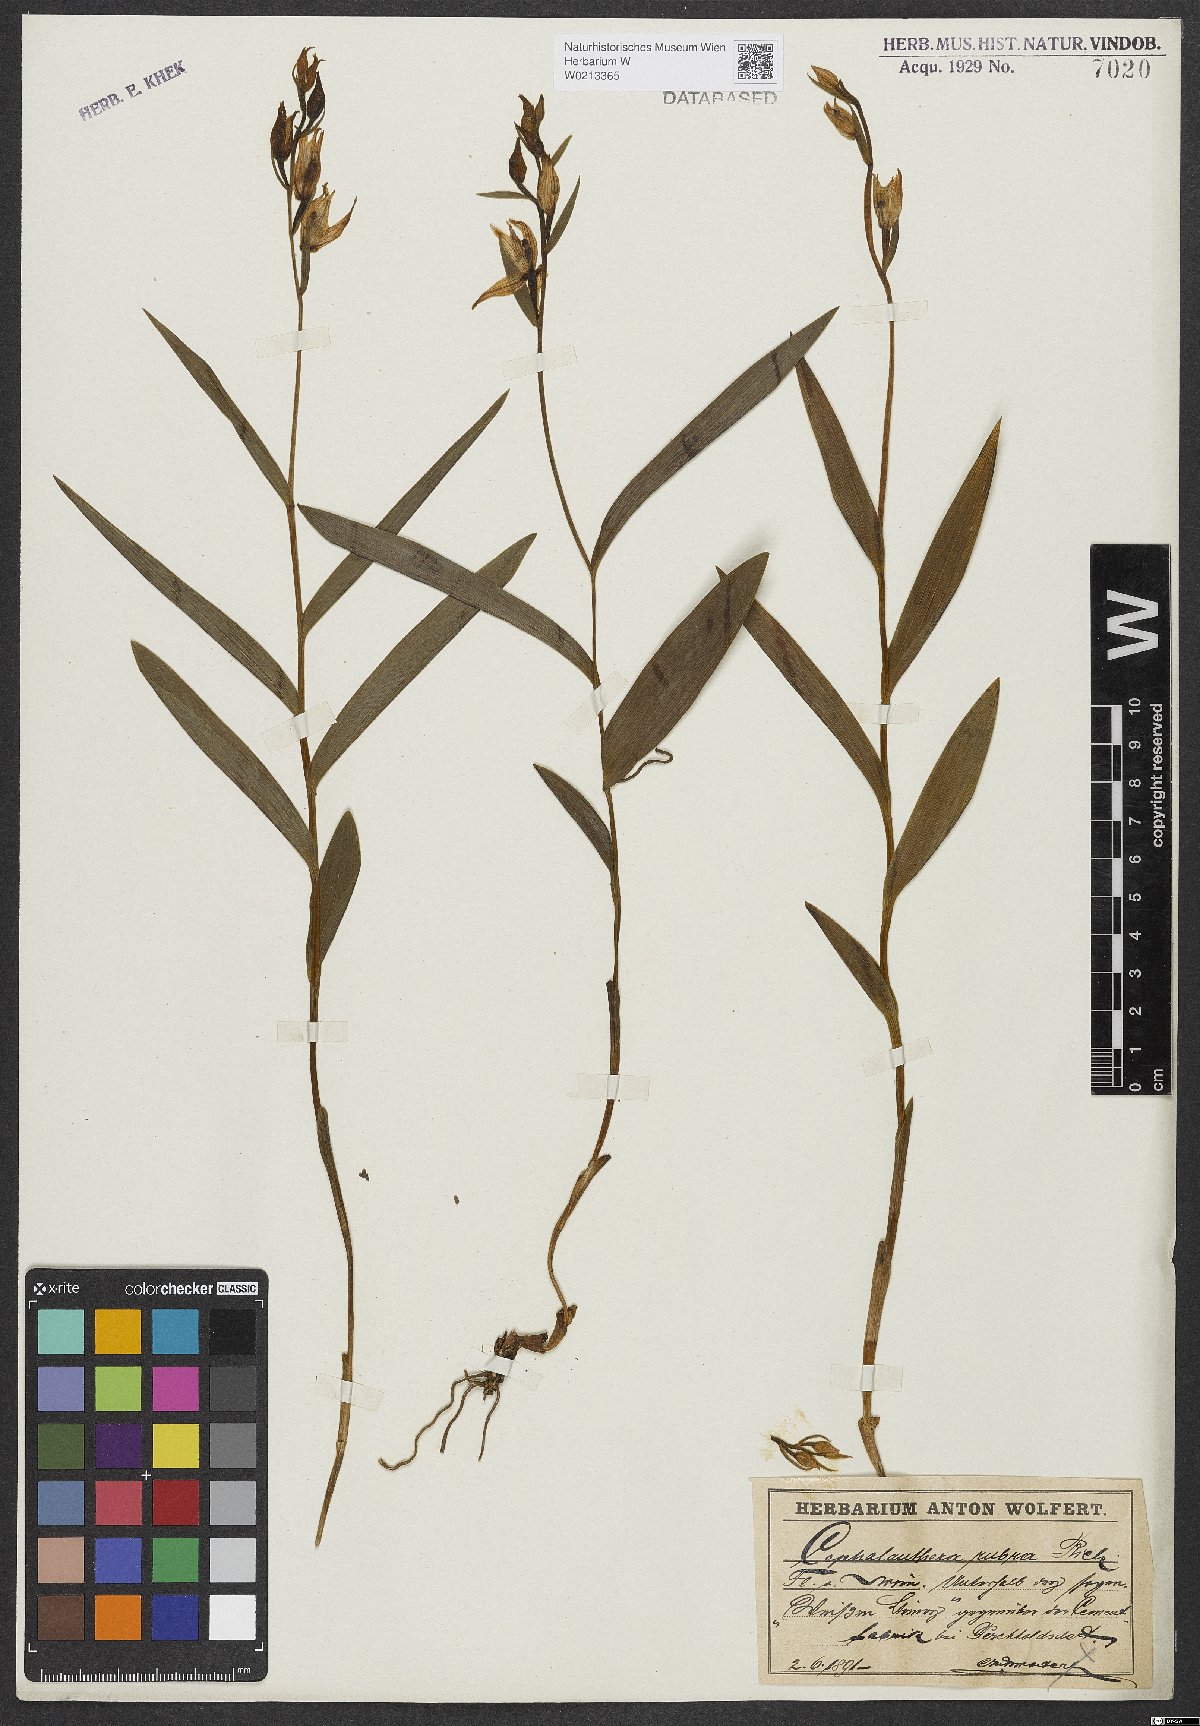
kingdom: Plantae
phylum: Tracheophyta
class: Liliopsida
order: Asparagales
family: Orchidaceae
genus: Cephalanthera
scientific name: Cephalanthera rubra
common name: Red helleborine
